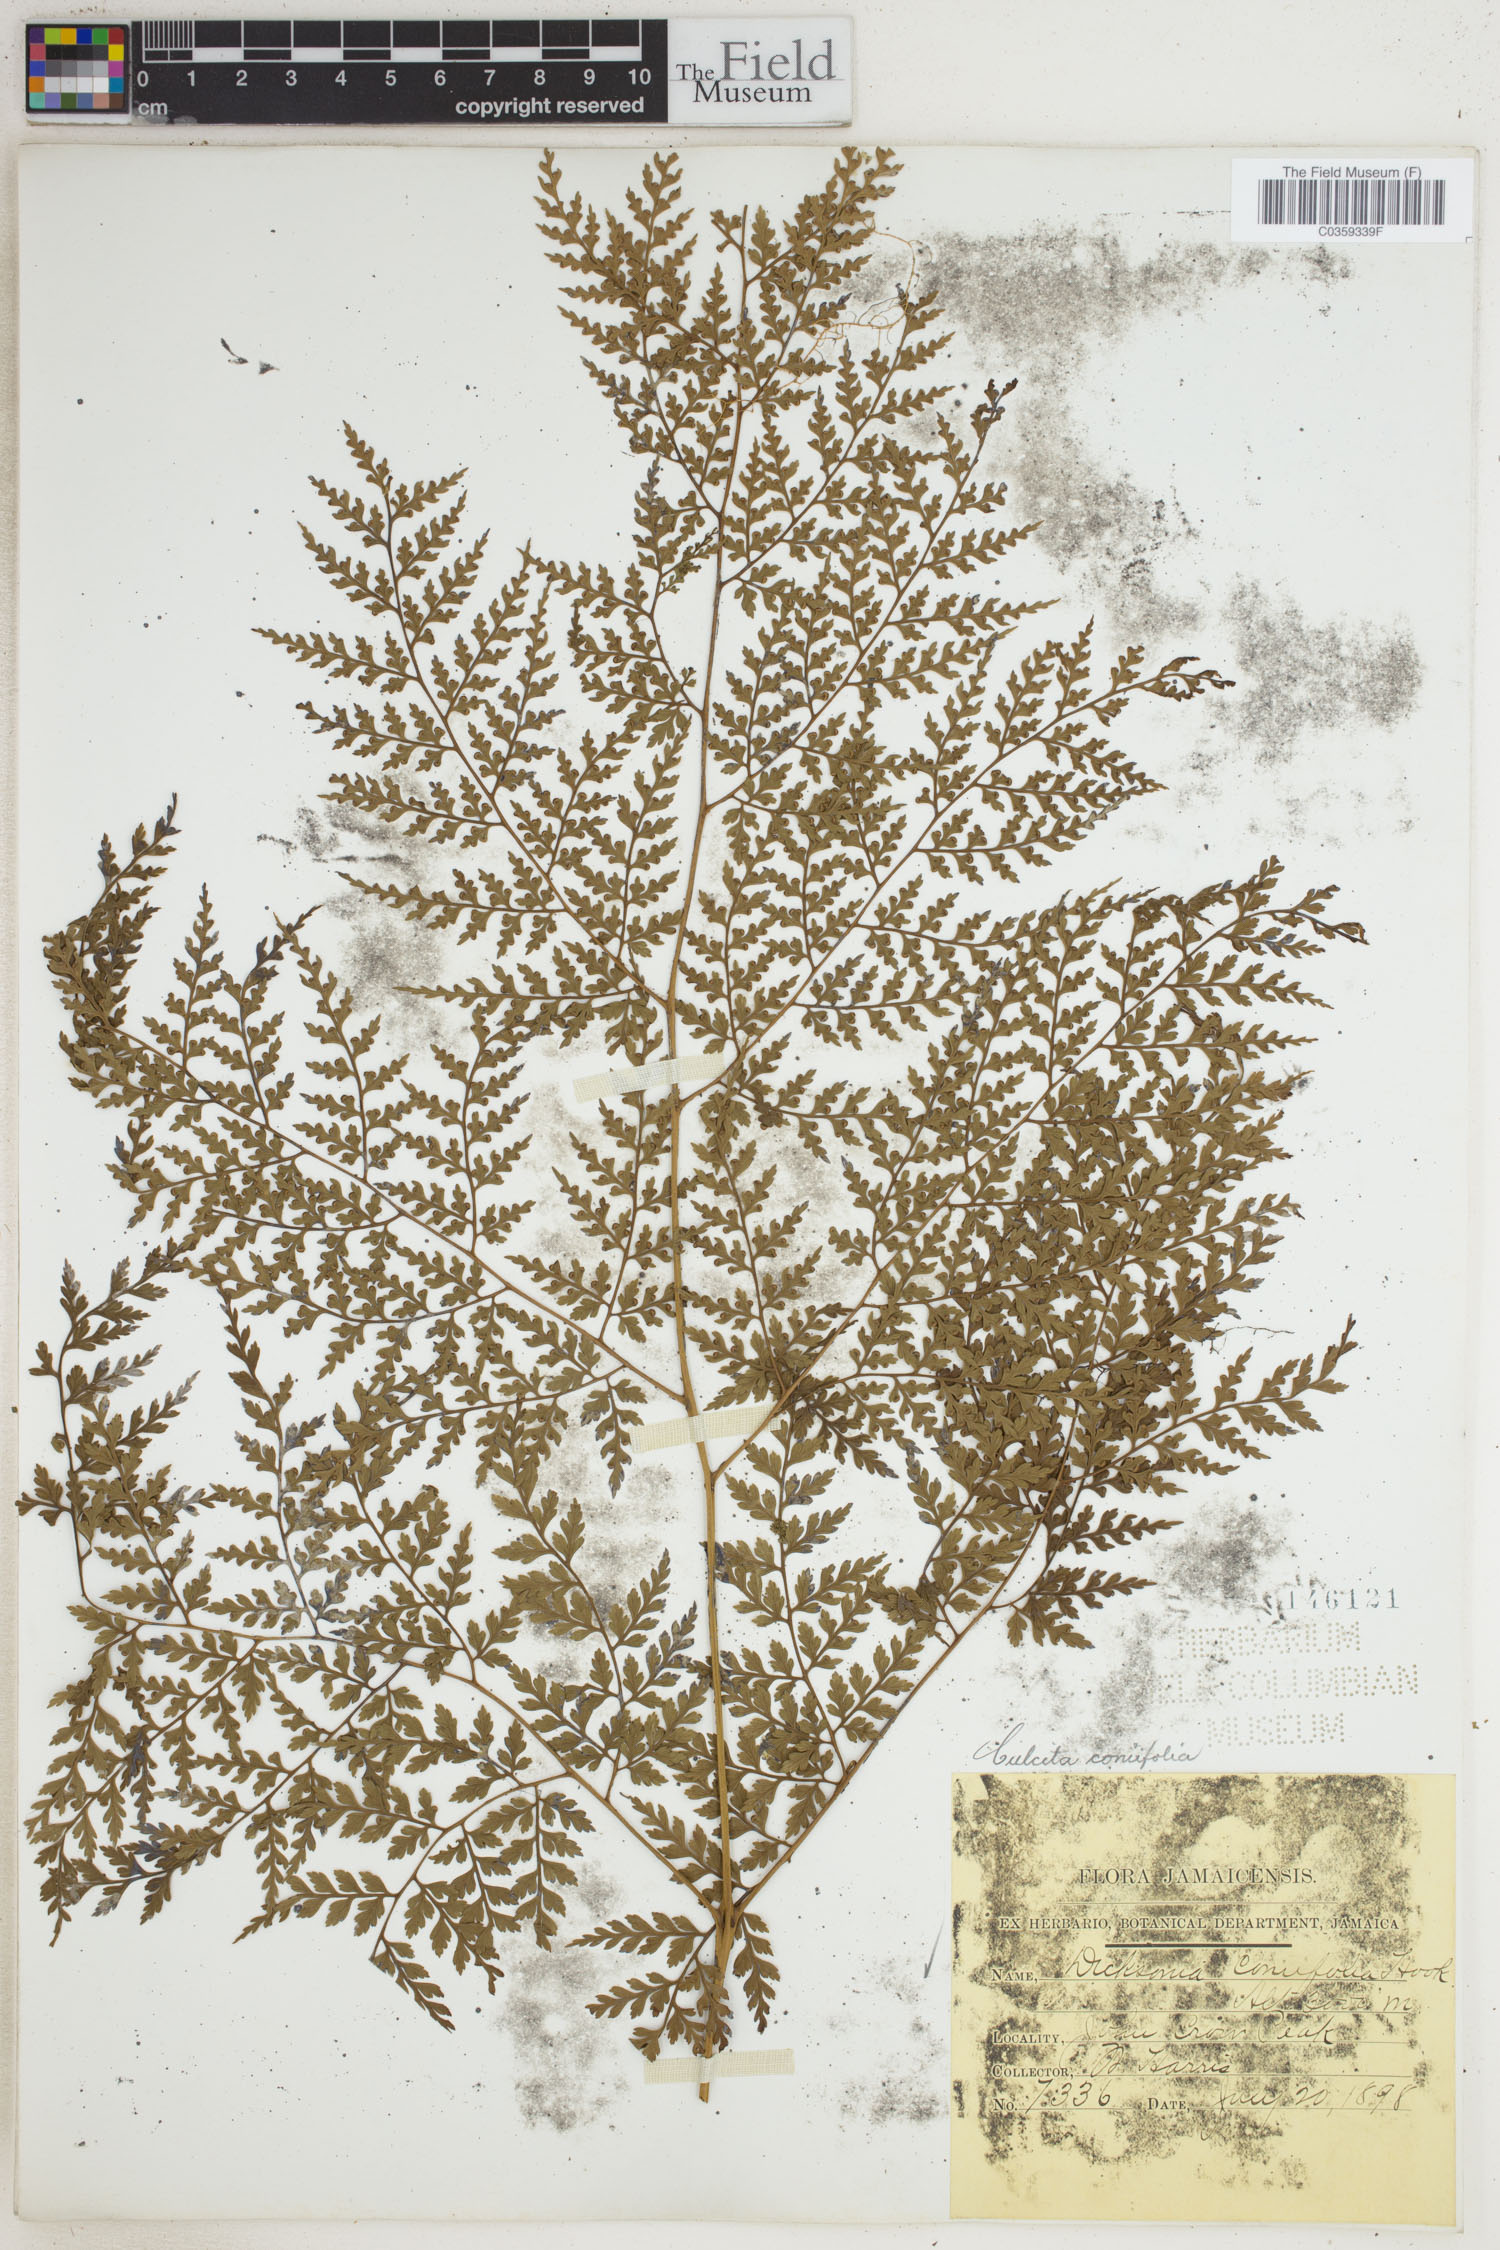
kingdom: Plantae
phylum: Tracheophyta
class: Polypodiopsida
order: Cyatheales
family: Culcitaceae
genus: Culcita
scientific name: Culcita coniifolia
